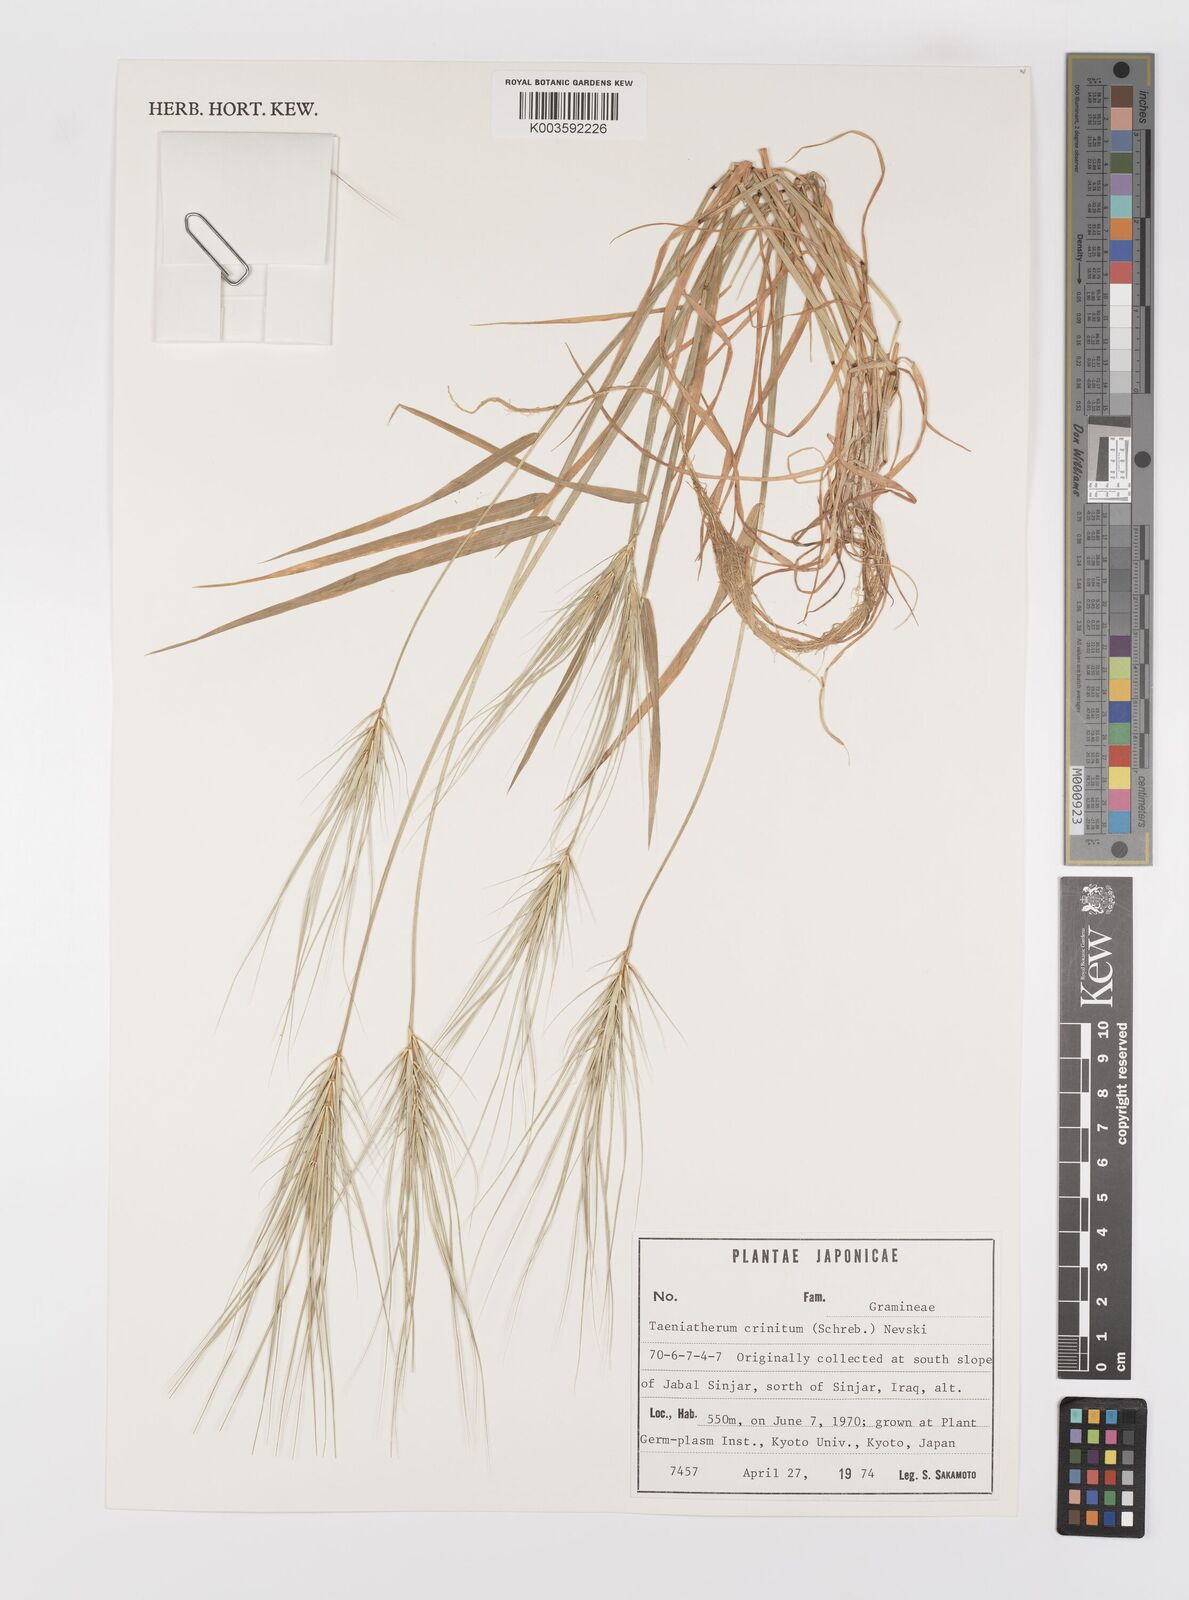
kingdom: Plantae
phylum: Tracheophyta
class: Liliopsida
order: Poales
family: Poaceae
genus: Taeniatherum
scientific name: Taeniatherum caput-medusae
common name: Medusahead
